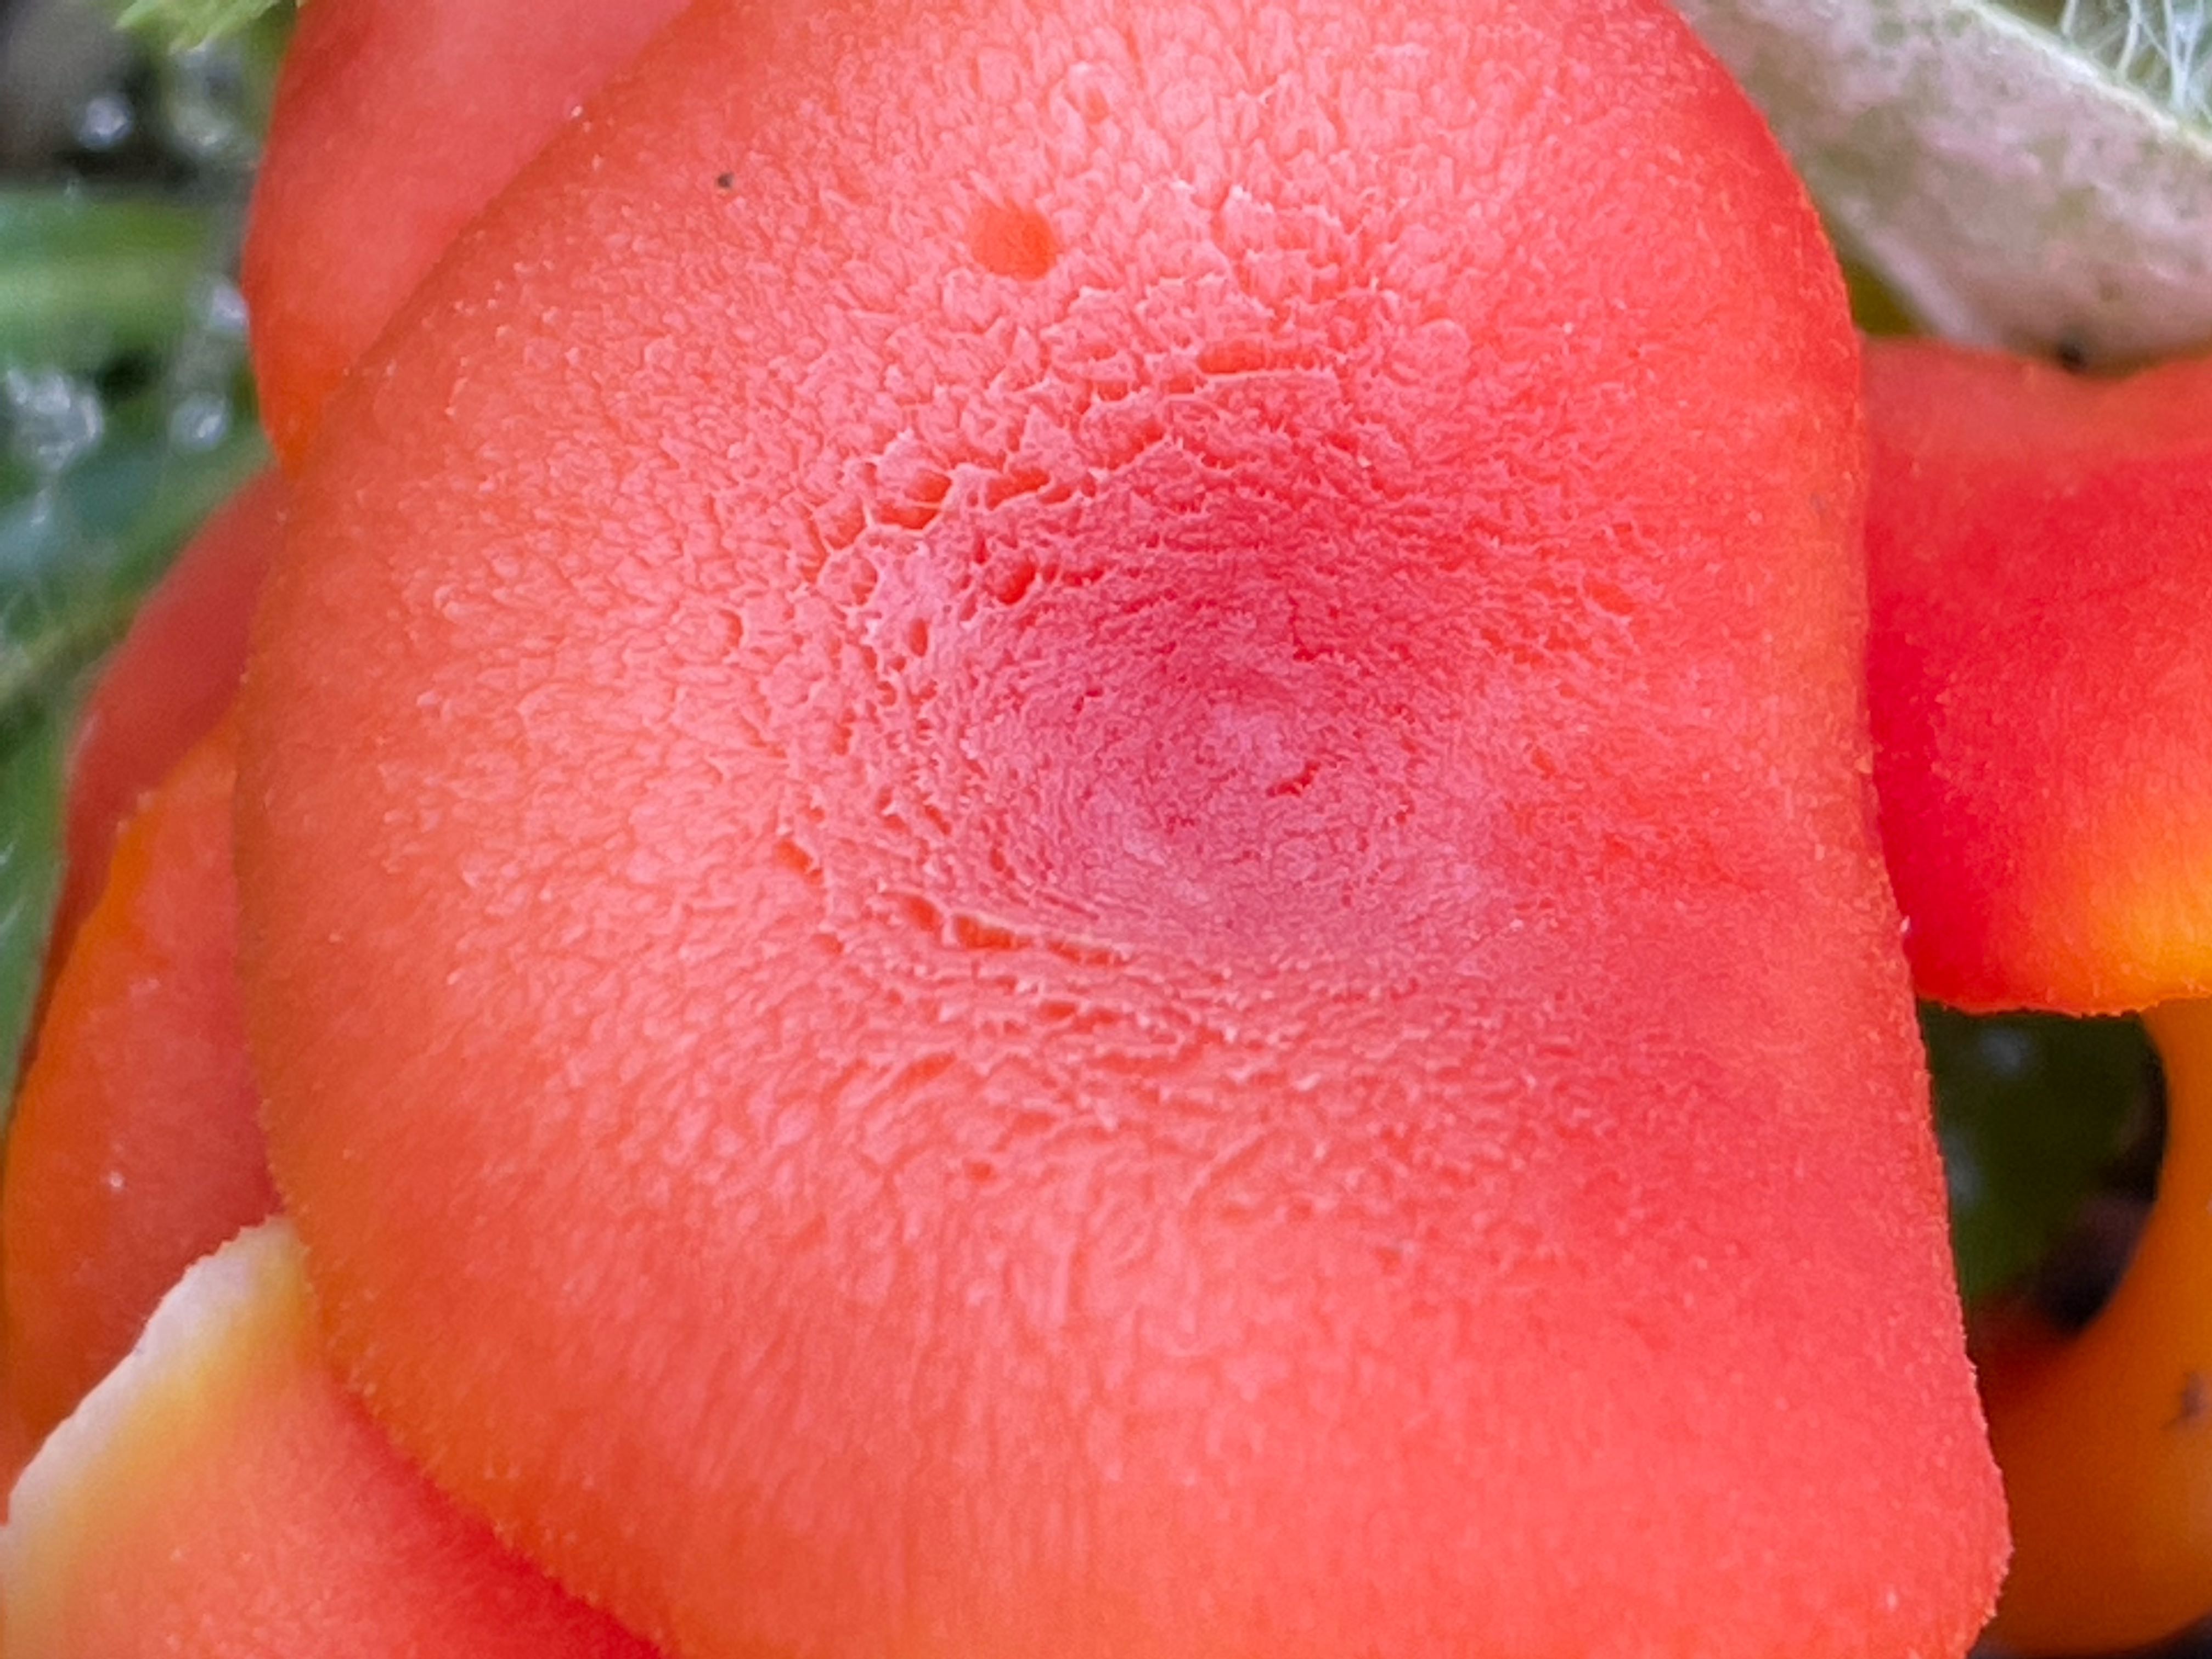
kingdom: Fungi
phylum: Basidiomycota
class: Agaricomycetes
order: Agaricales
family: Hygrophoraceae
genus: Hygrocybe
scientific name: Hygrocybe miniata
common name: mønje-vokshat
